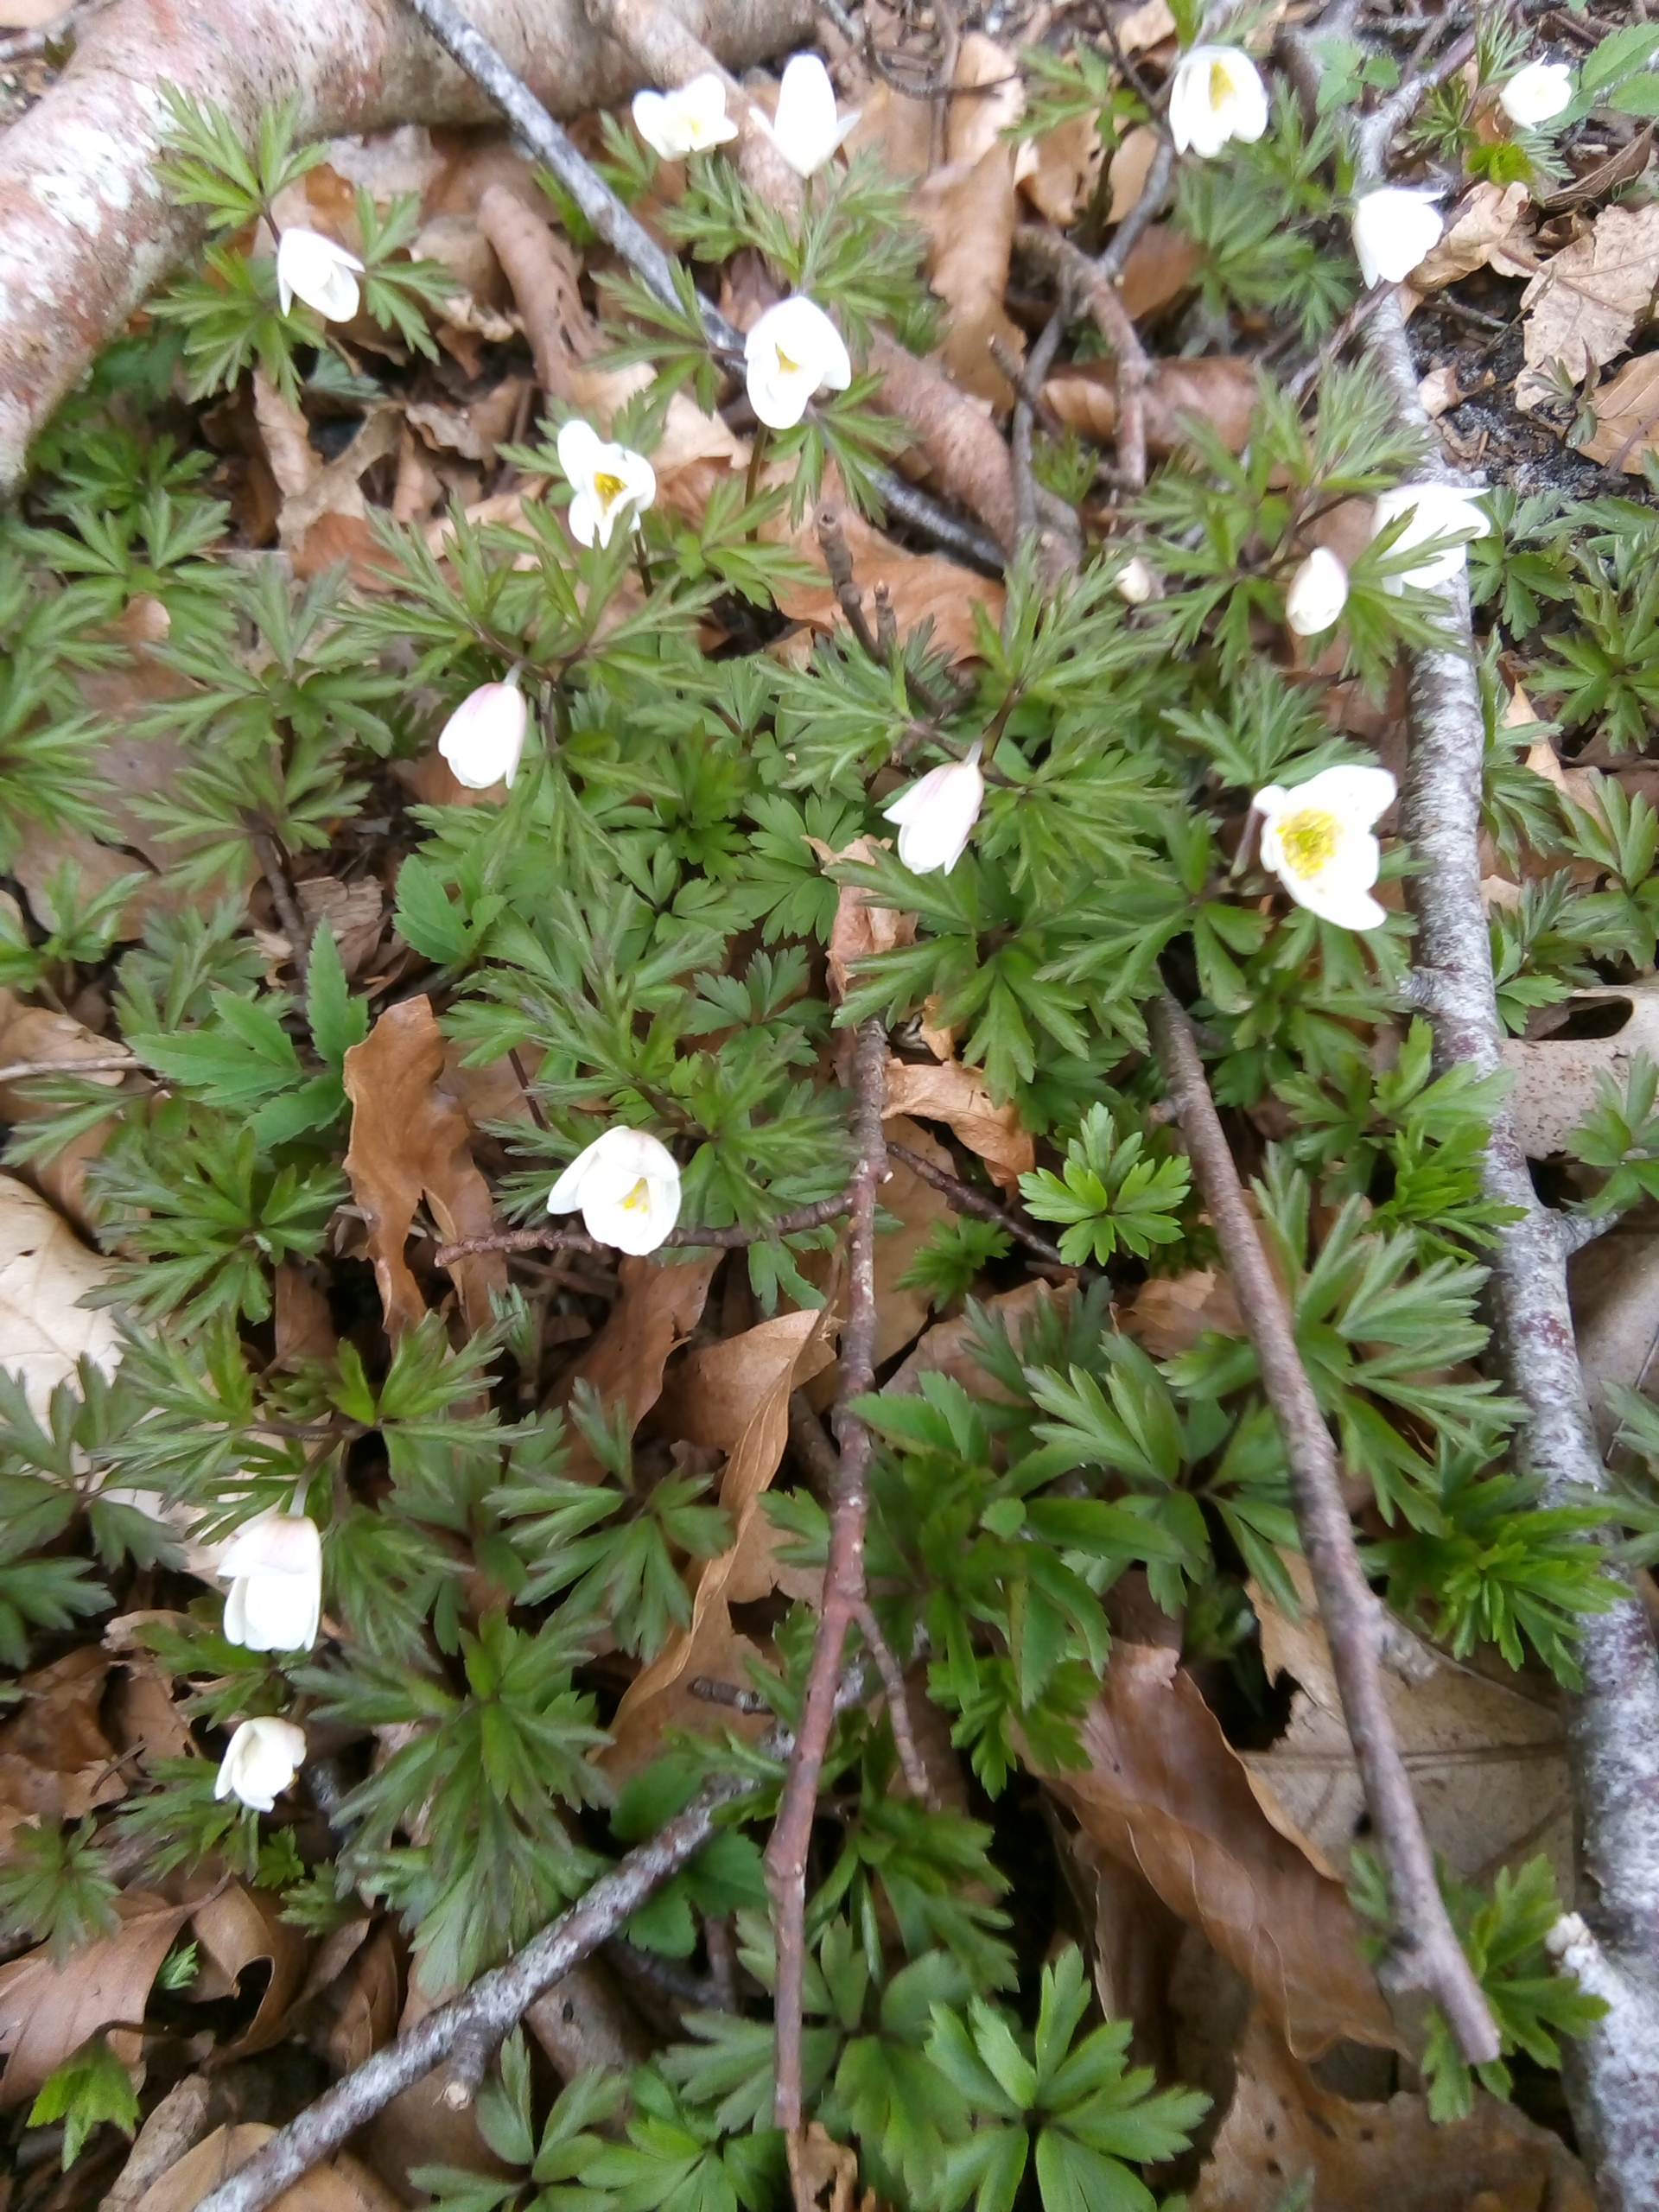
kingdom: Plantae
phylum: Tracheophyta
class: Magnoliopsida
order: Ranunculales
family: Ranunculaceae
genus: Anemone
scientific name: Anemone nemorosa
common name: Hvid anemone
